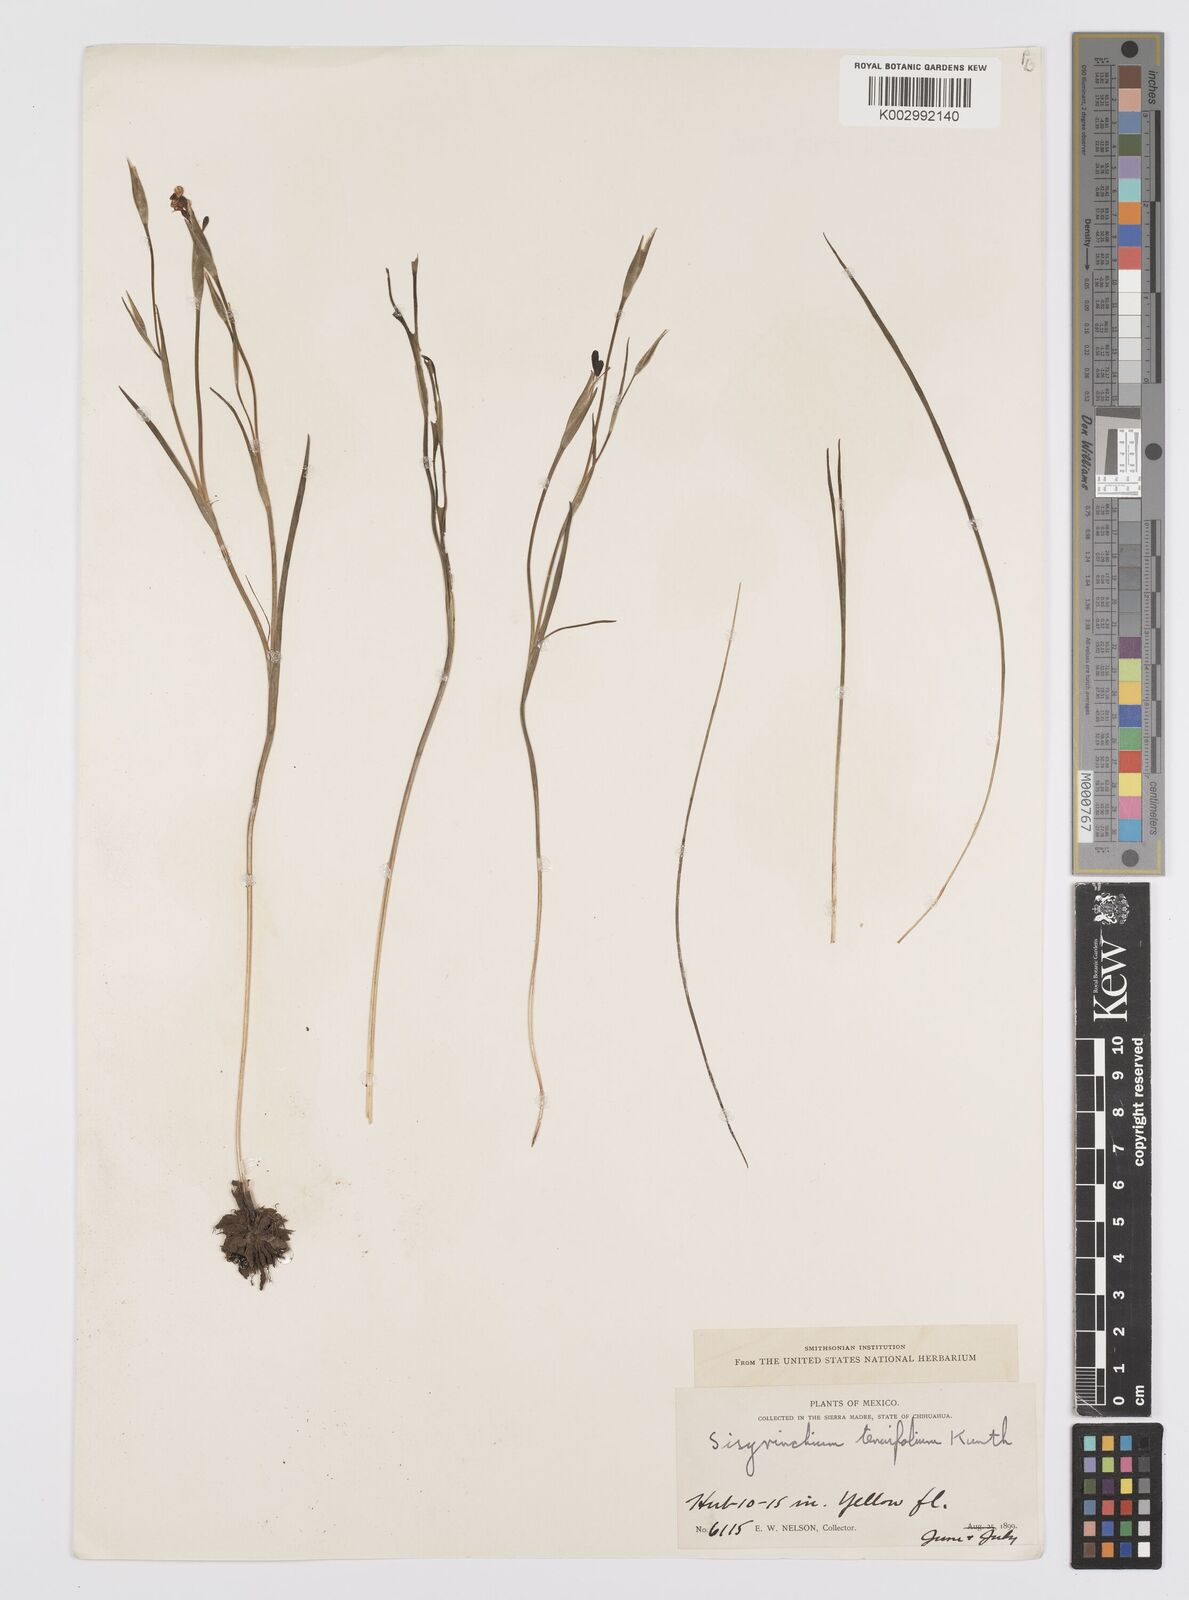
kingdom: Plantae
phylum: Tracheophyta
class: Liliopsida
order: Asparagales
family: Iridaceae
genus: Sisyrinchium
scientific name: Sisyrinchium langloisii
